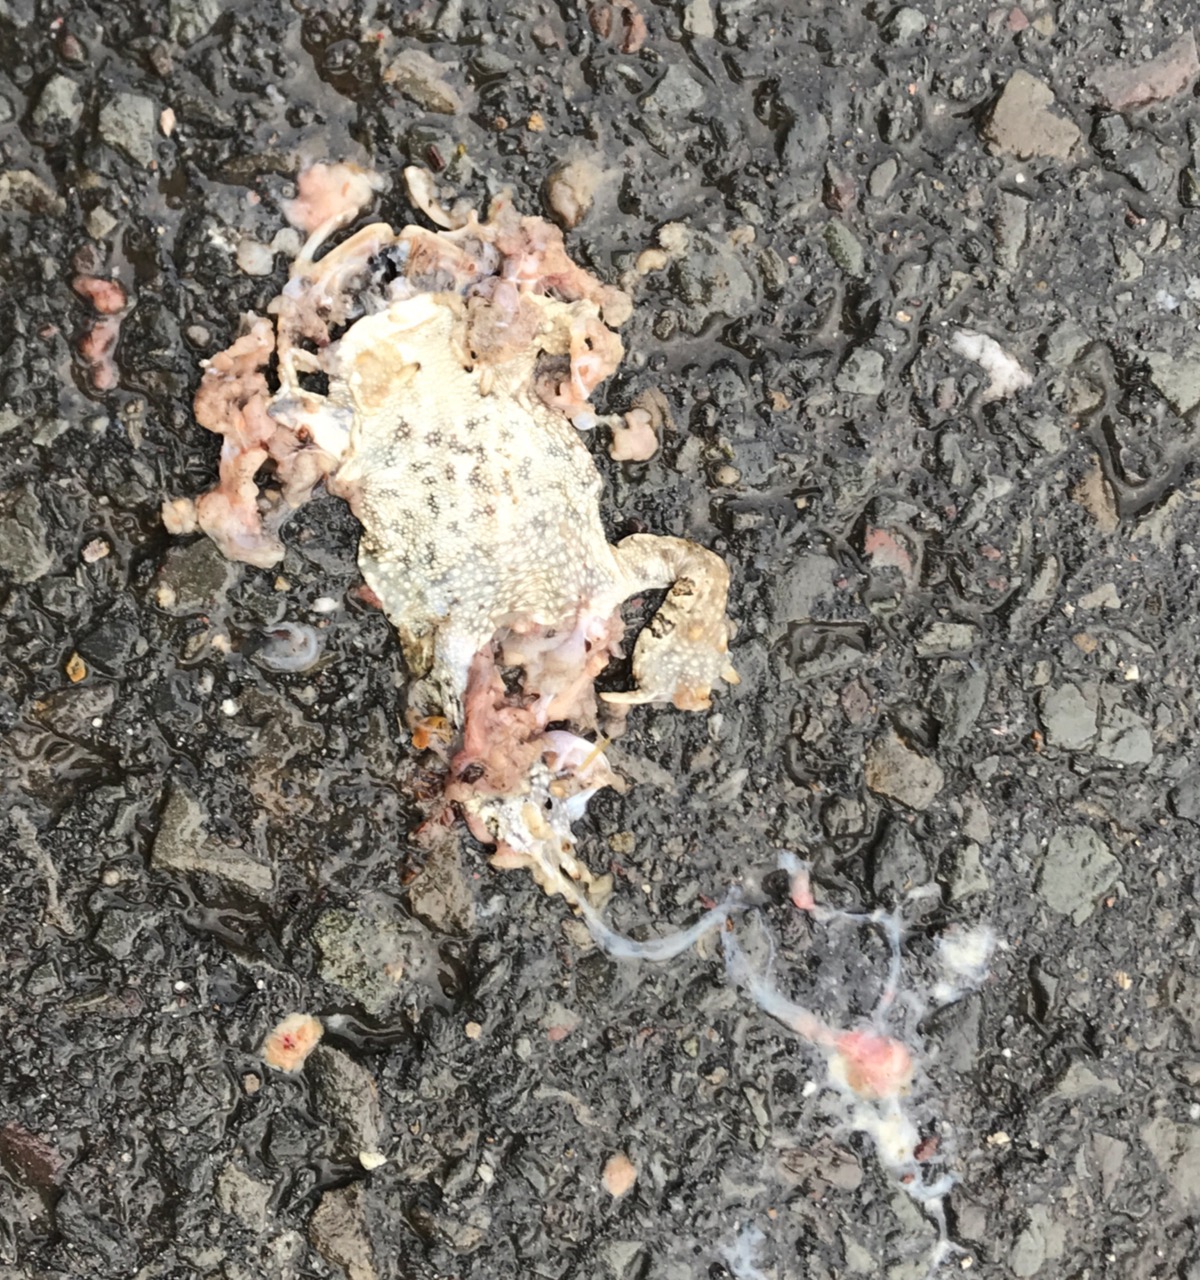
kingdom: Animalia
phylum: Chordata
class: Amphibia
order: Anura
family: Bufonidae
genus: Epidalea
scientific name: Epidalea calamita
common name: Natterjack toad
